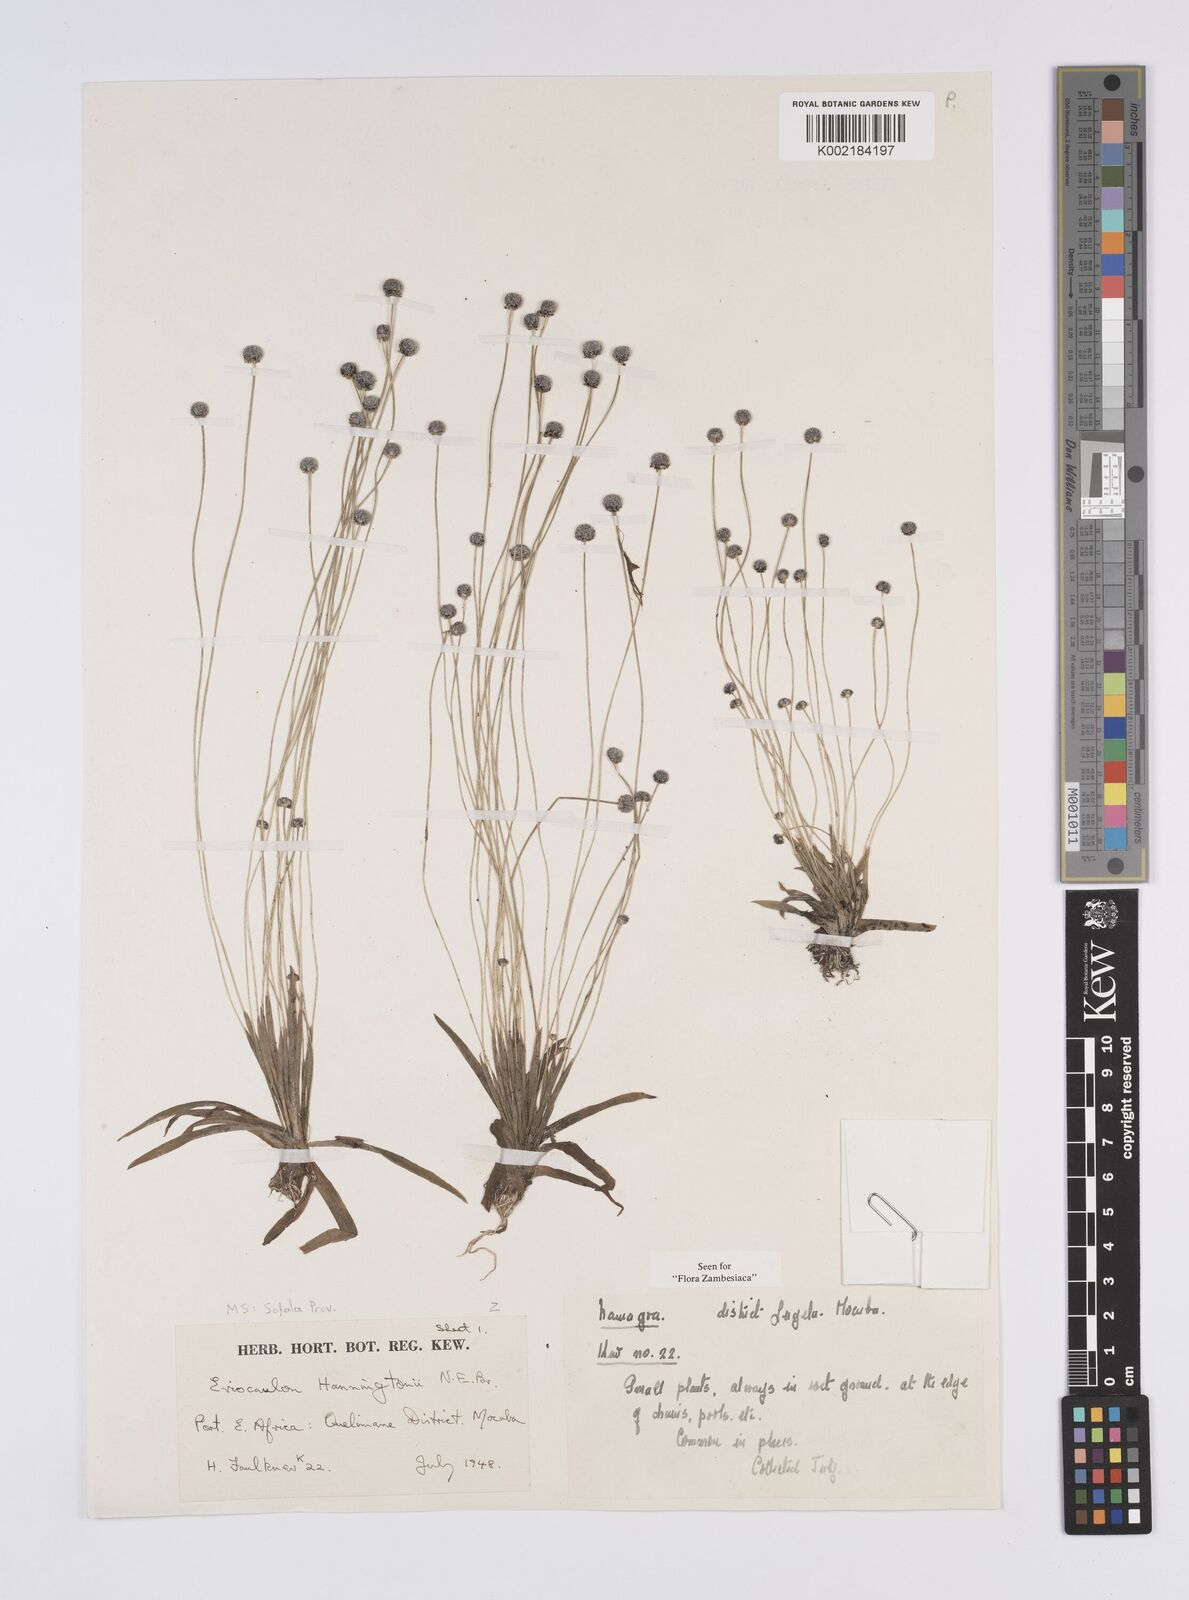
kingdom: Plantae
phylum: Tracheophyta
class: Liliopsida
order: Poales
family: Eriocaulaceae
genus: Eriocaulon
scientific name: Eriocaulon transvaalicum
